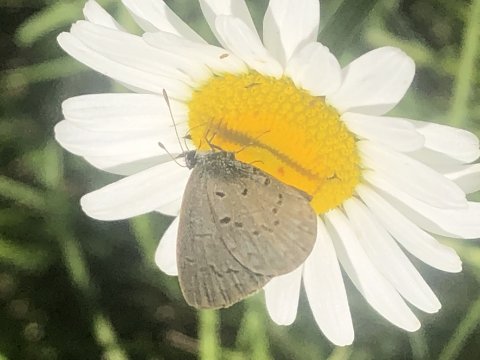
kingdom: Animalia
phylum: Arthropoda
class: Insecta
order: Lepidoptera
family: Lycaenidae
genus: Celastrina
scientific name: Celastrina
